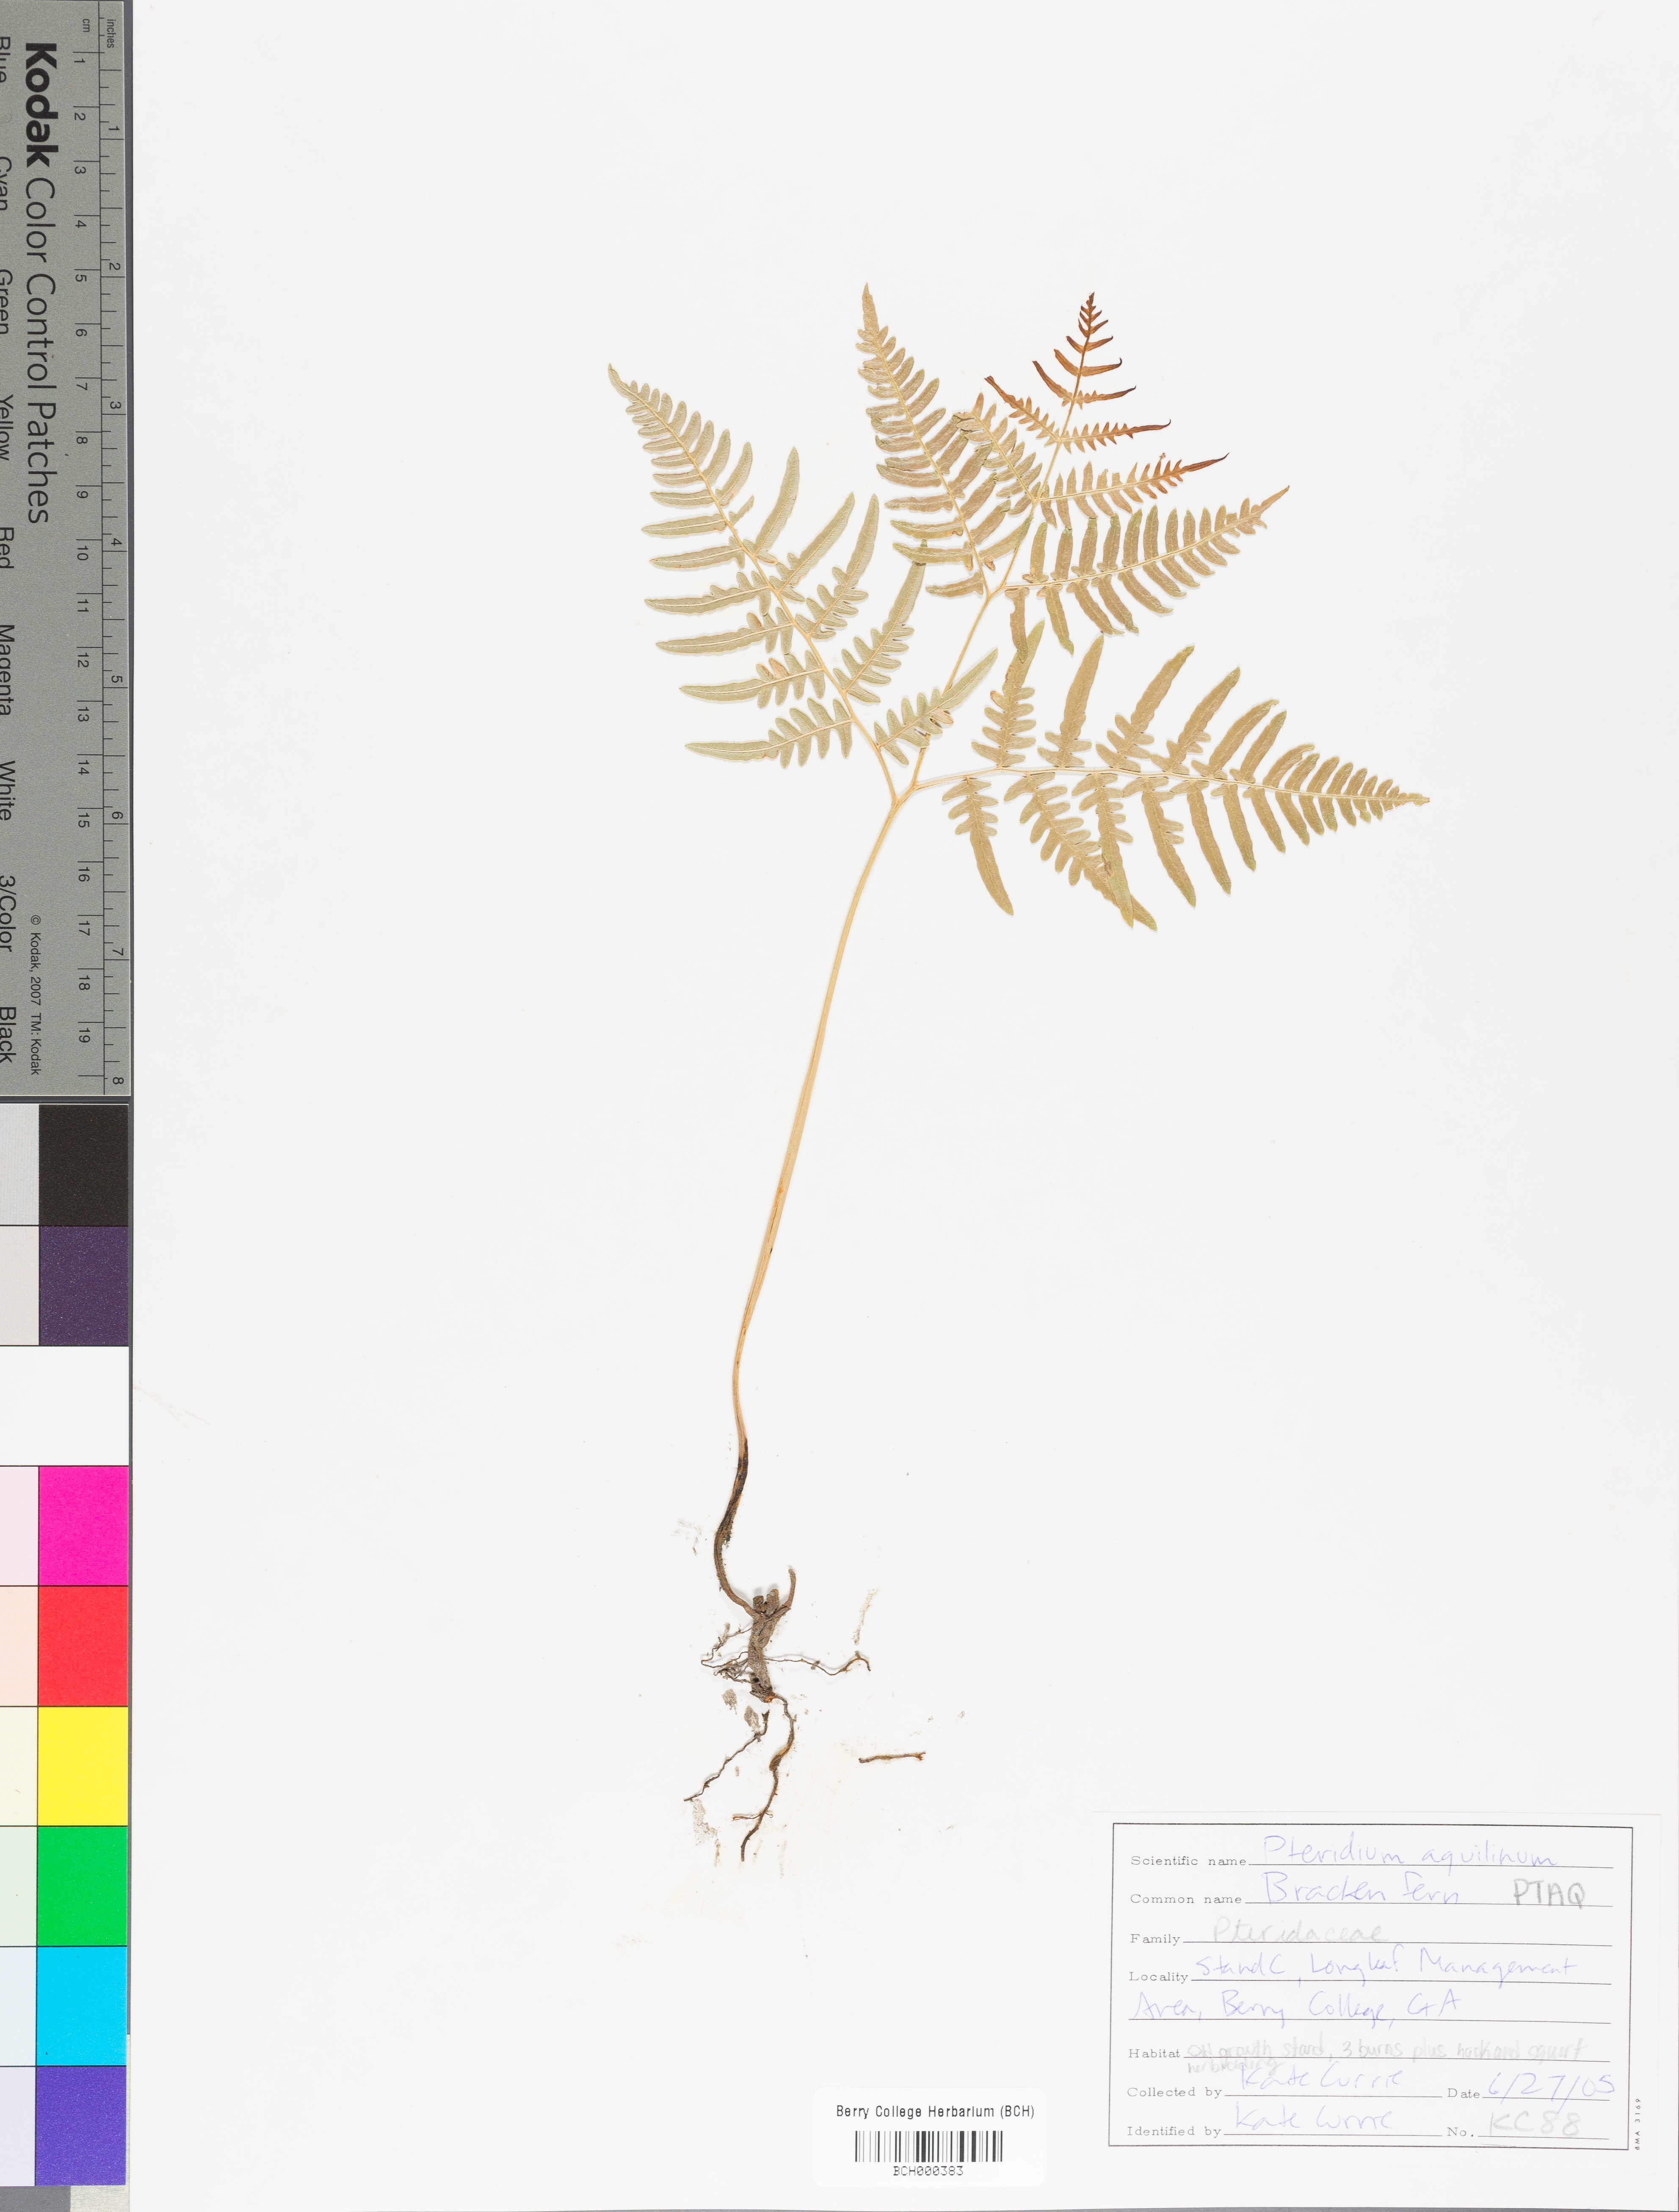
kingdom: Plantae
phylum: Tracheophyta
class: Polypodiopsida
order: Polypodiales
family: Dennstaedtiaceae
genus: Pteridium
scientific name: Pteridium aquilinum
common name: Bracken
